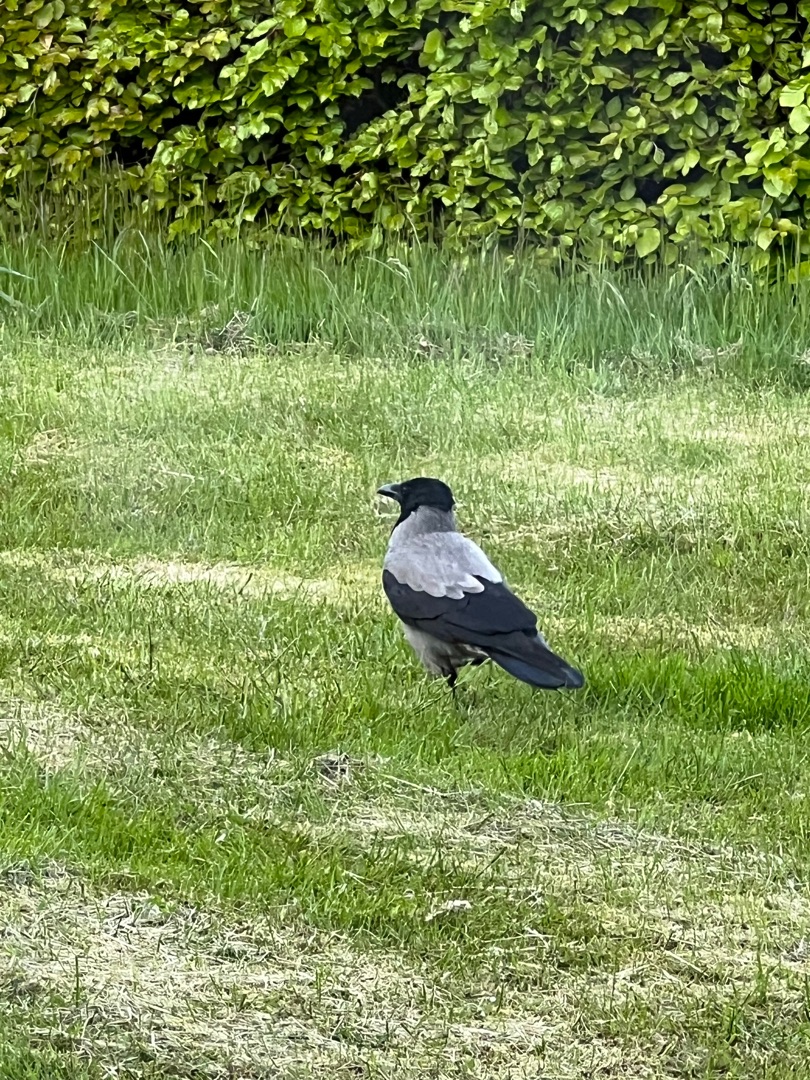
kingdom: Animalia
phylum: Chordata
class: Aves
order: Passeriformes
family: Corvidae
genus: Corvus
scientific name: Corvus cornix
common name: Gråkrage
